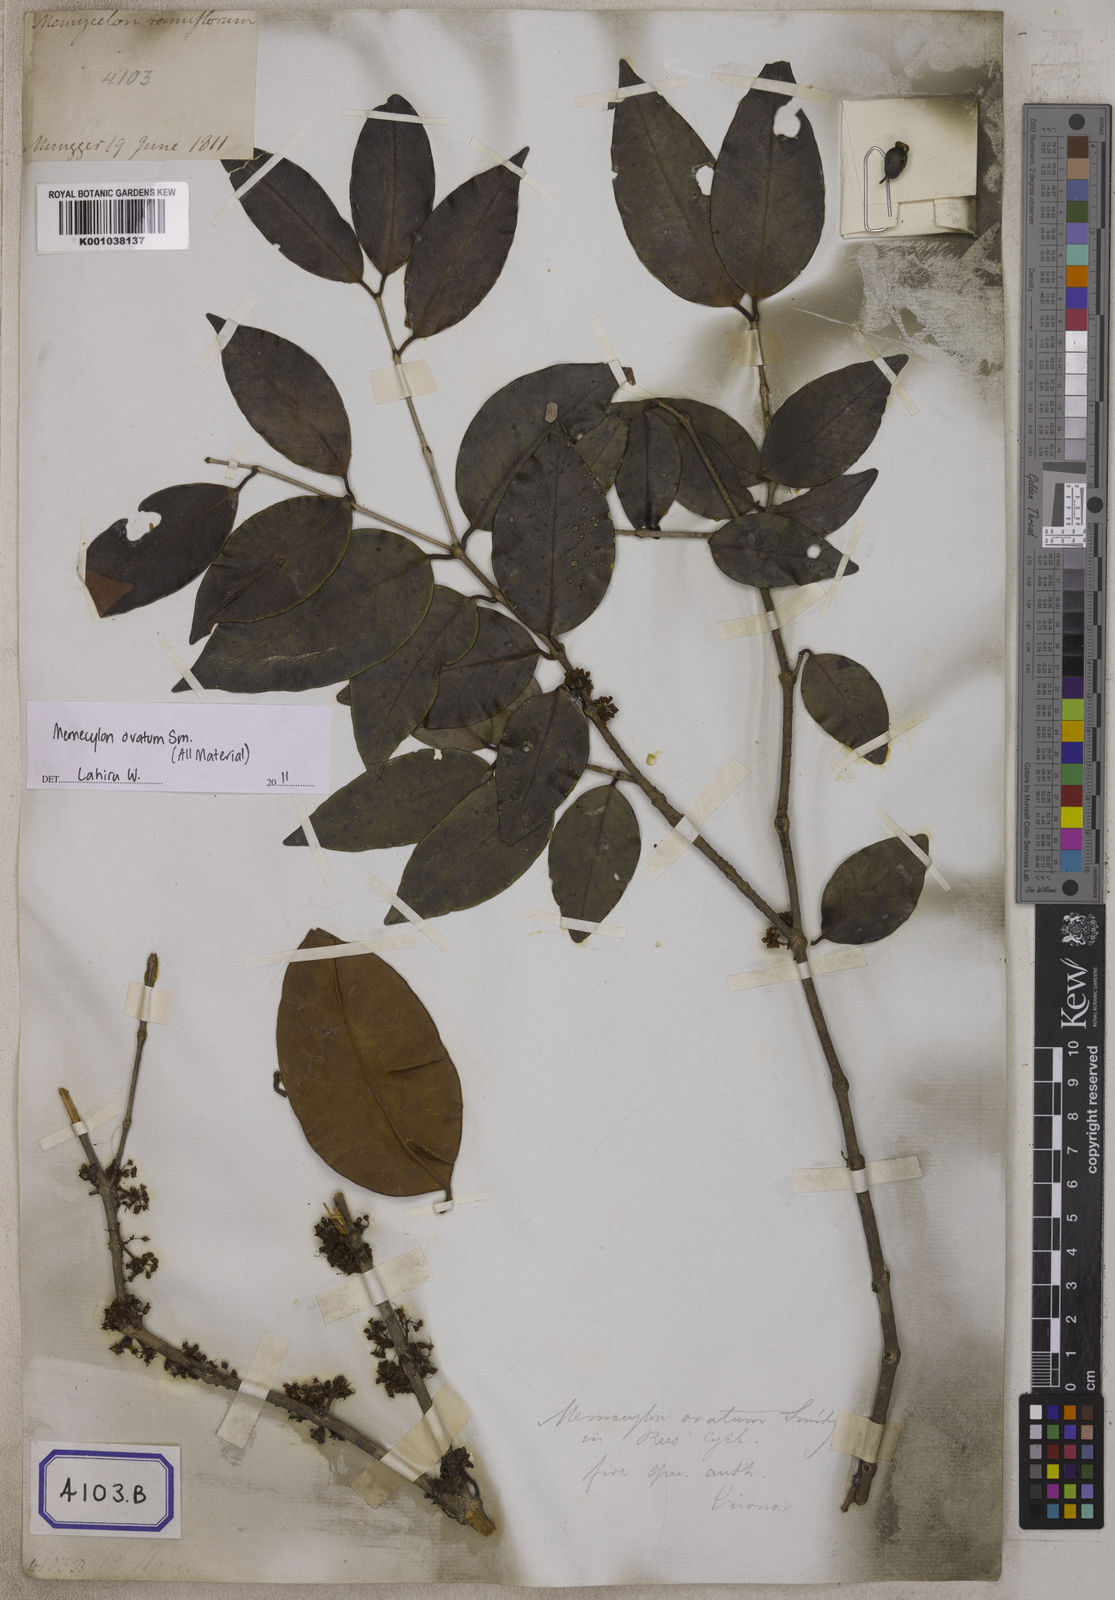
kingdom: Plantae
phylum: Tracheophyta
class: Magnoliopsida
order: Myrtales
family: Melastomataceae
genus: Memecylon
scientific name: Memecylon grande
